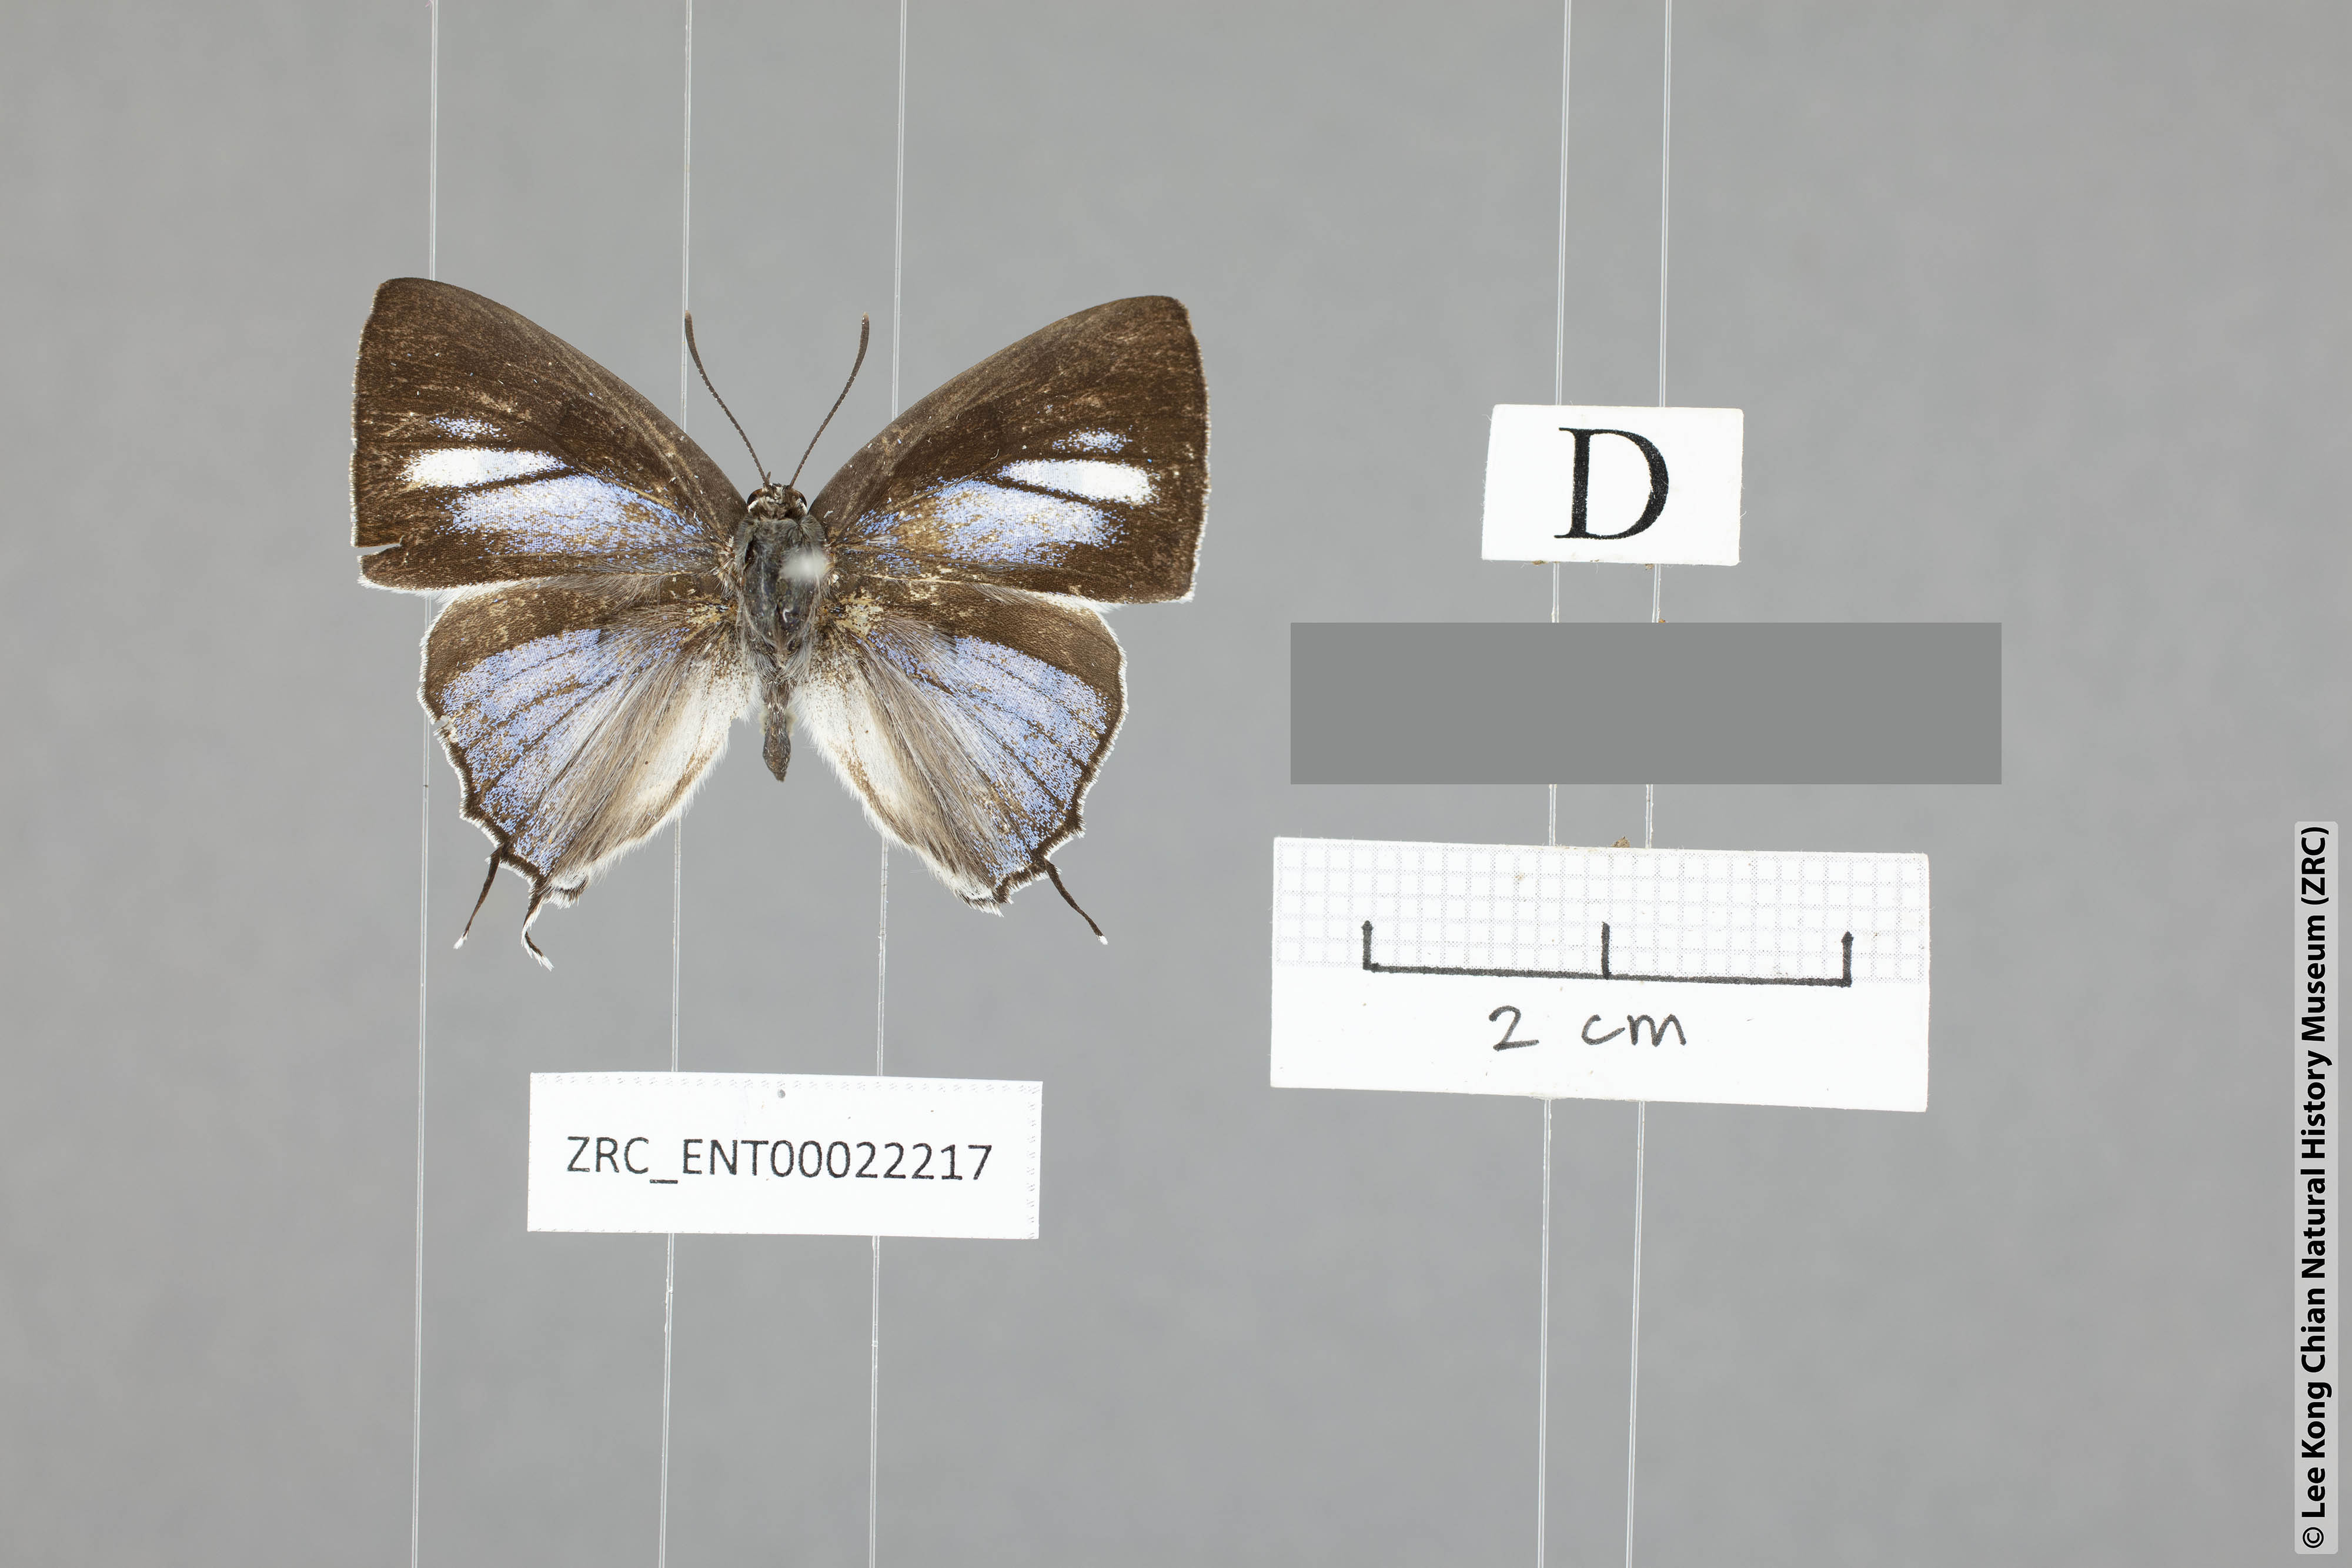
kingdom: Animalia
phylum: Arthropoda
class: Insecta
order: Lepidoptera
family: Lycaenidae
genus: Tajuria
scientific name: Tajuria maculatus
